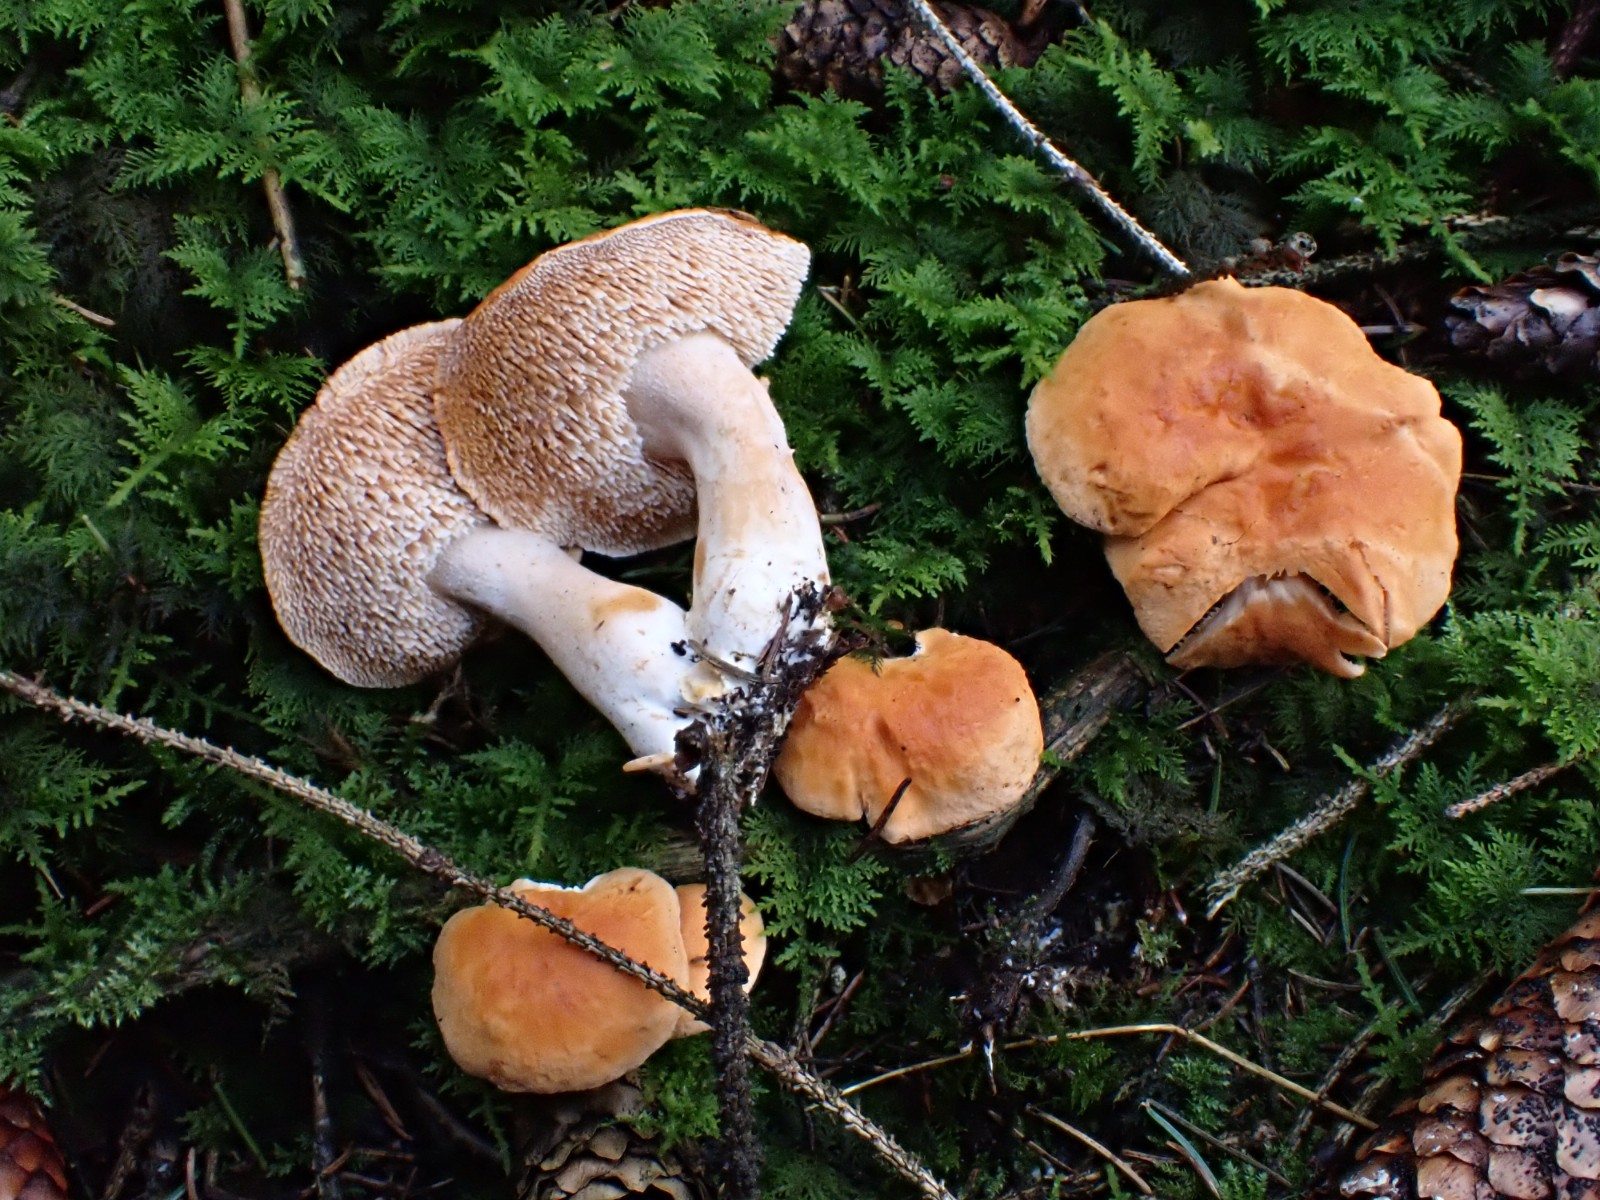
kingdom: Fungi
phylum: Basidiomycota
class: Agaricomycetes
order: Cantharellales
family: Hydnaceae
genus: Hydnum
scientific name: Hydnum mulsicolor
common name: mjødfarvet pigsvamp
